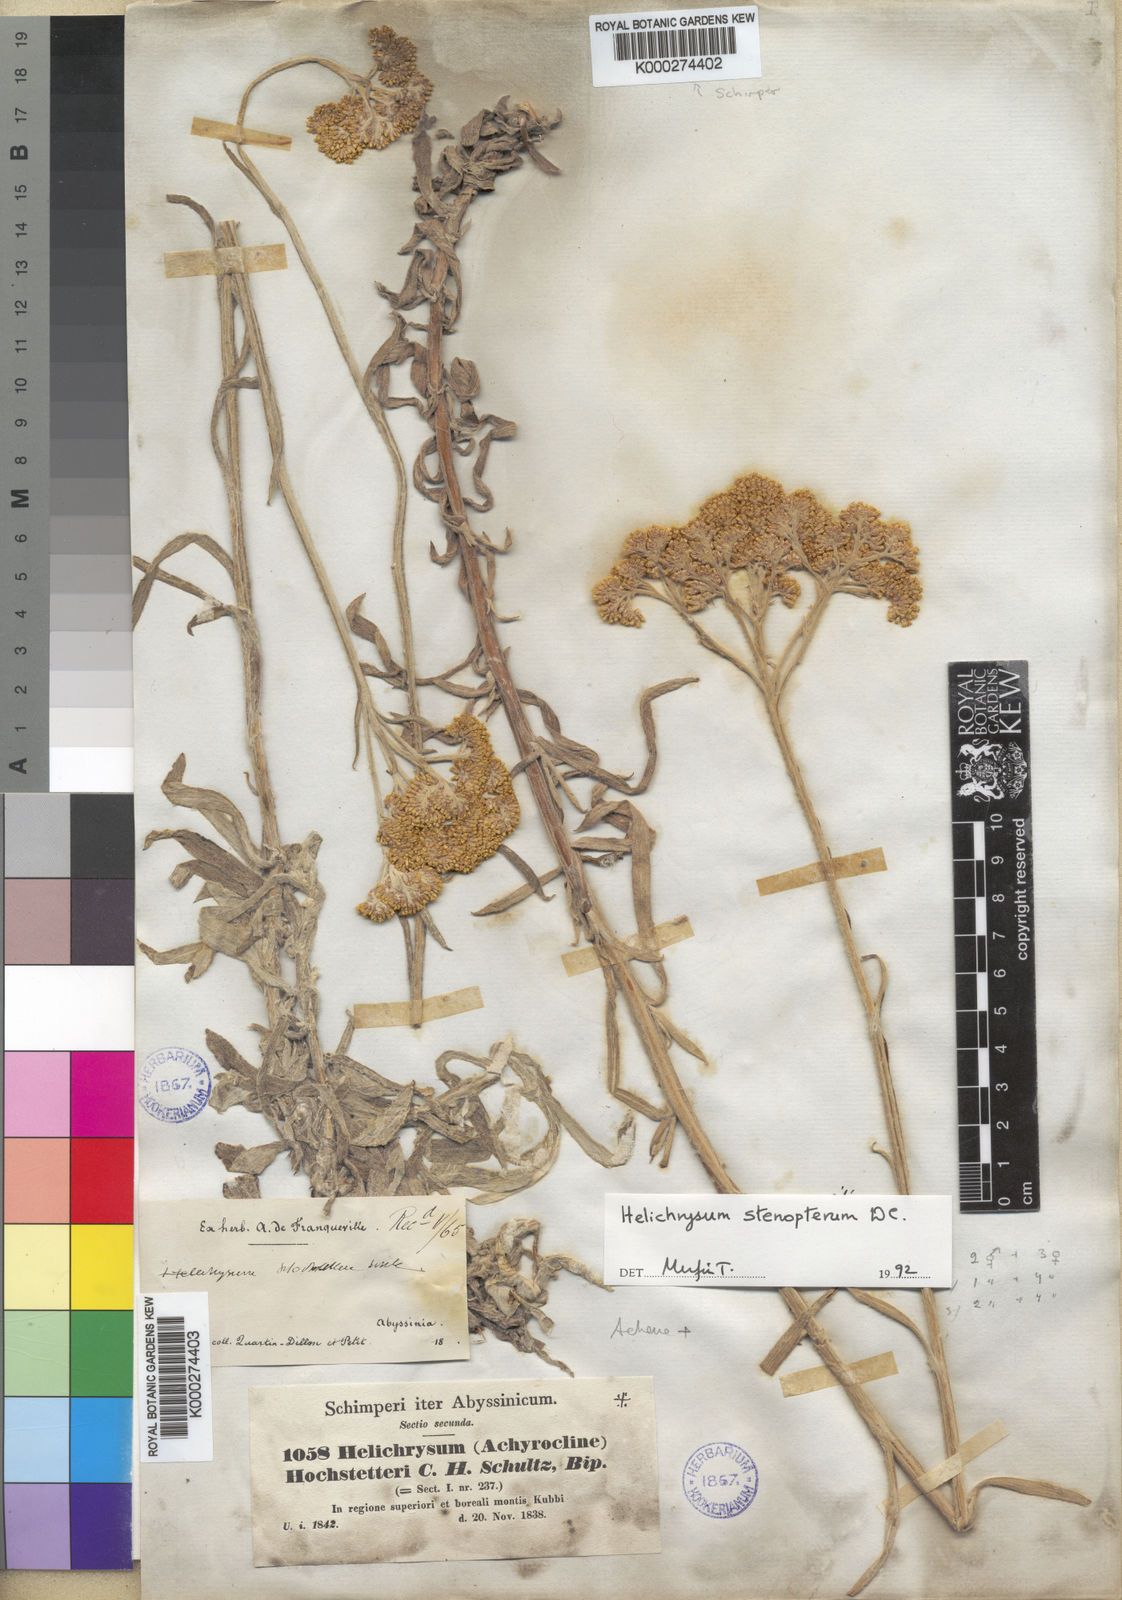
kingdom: Plantae
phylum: Tracheophyta
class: Magnoliopsida
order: Asterales
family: Asteraceae
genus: Helichrysum
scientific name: Helichrysum
